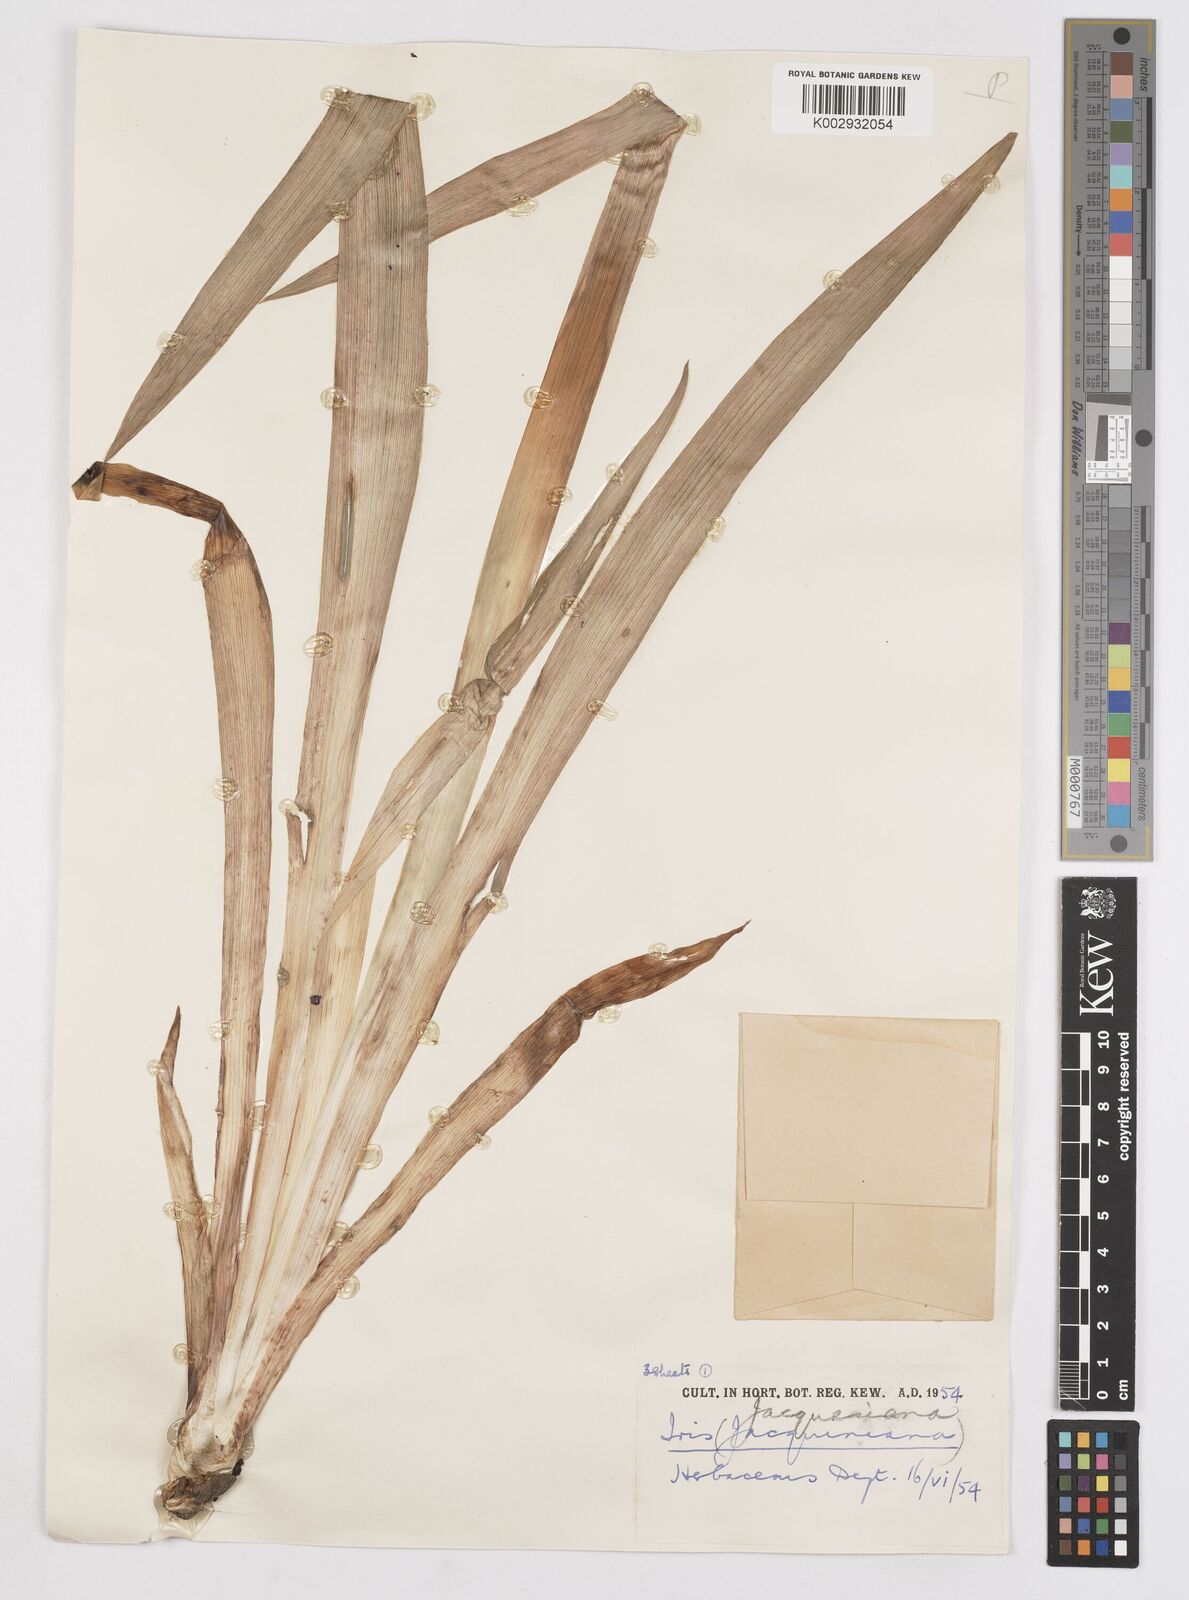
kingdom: Plantae
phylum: Tracheophyta
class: Liliopsida
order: Asparagales
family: Iridaceae
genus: Iris
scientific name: Iris
